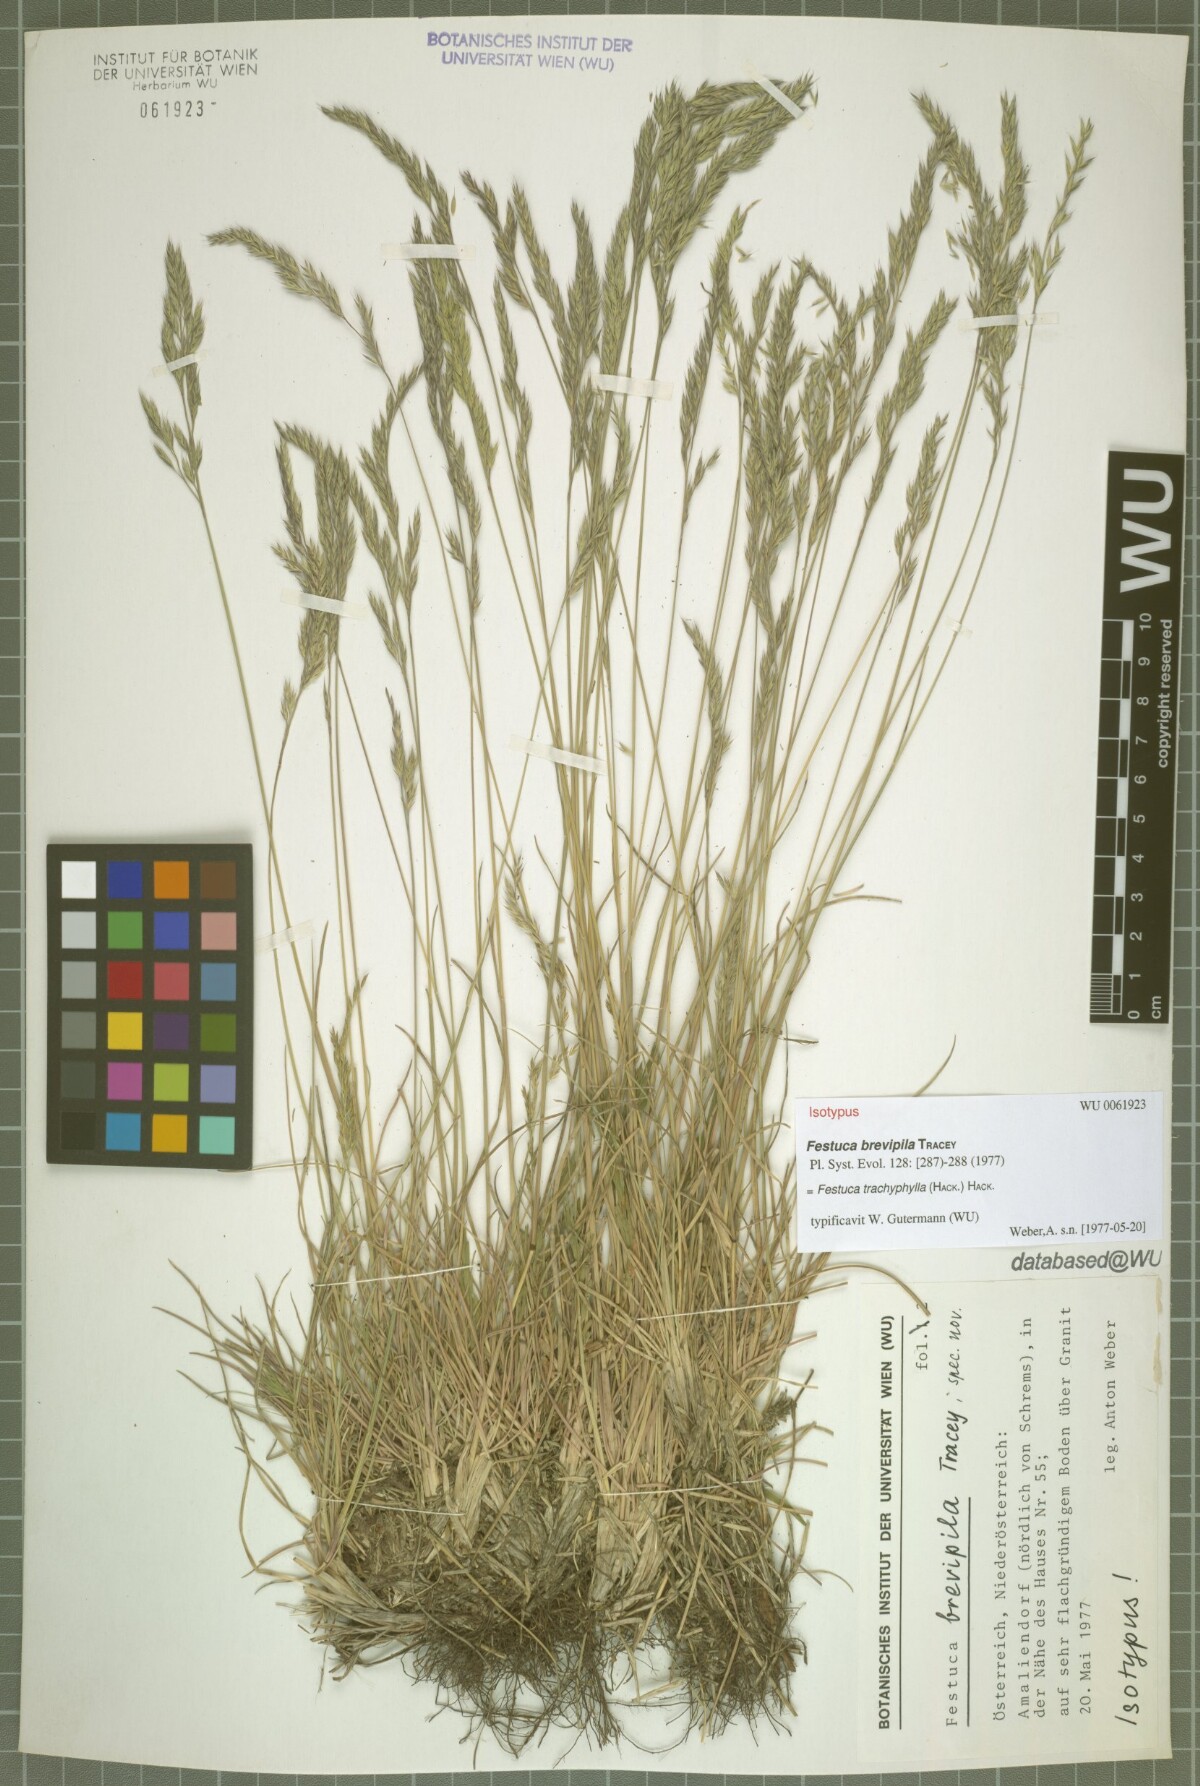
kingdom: Plantae
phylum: Tracheophyta
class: Liliopsida
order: Poales
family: Poaceae
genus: Festuca
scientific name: Festuca trachyphylla
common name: Hard fescue
